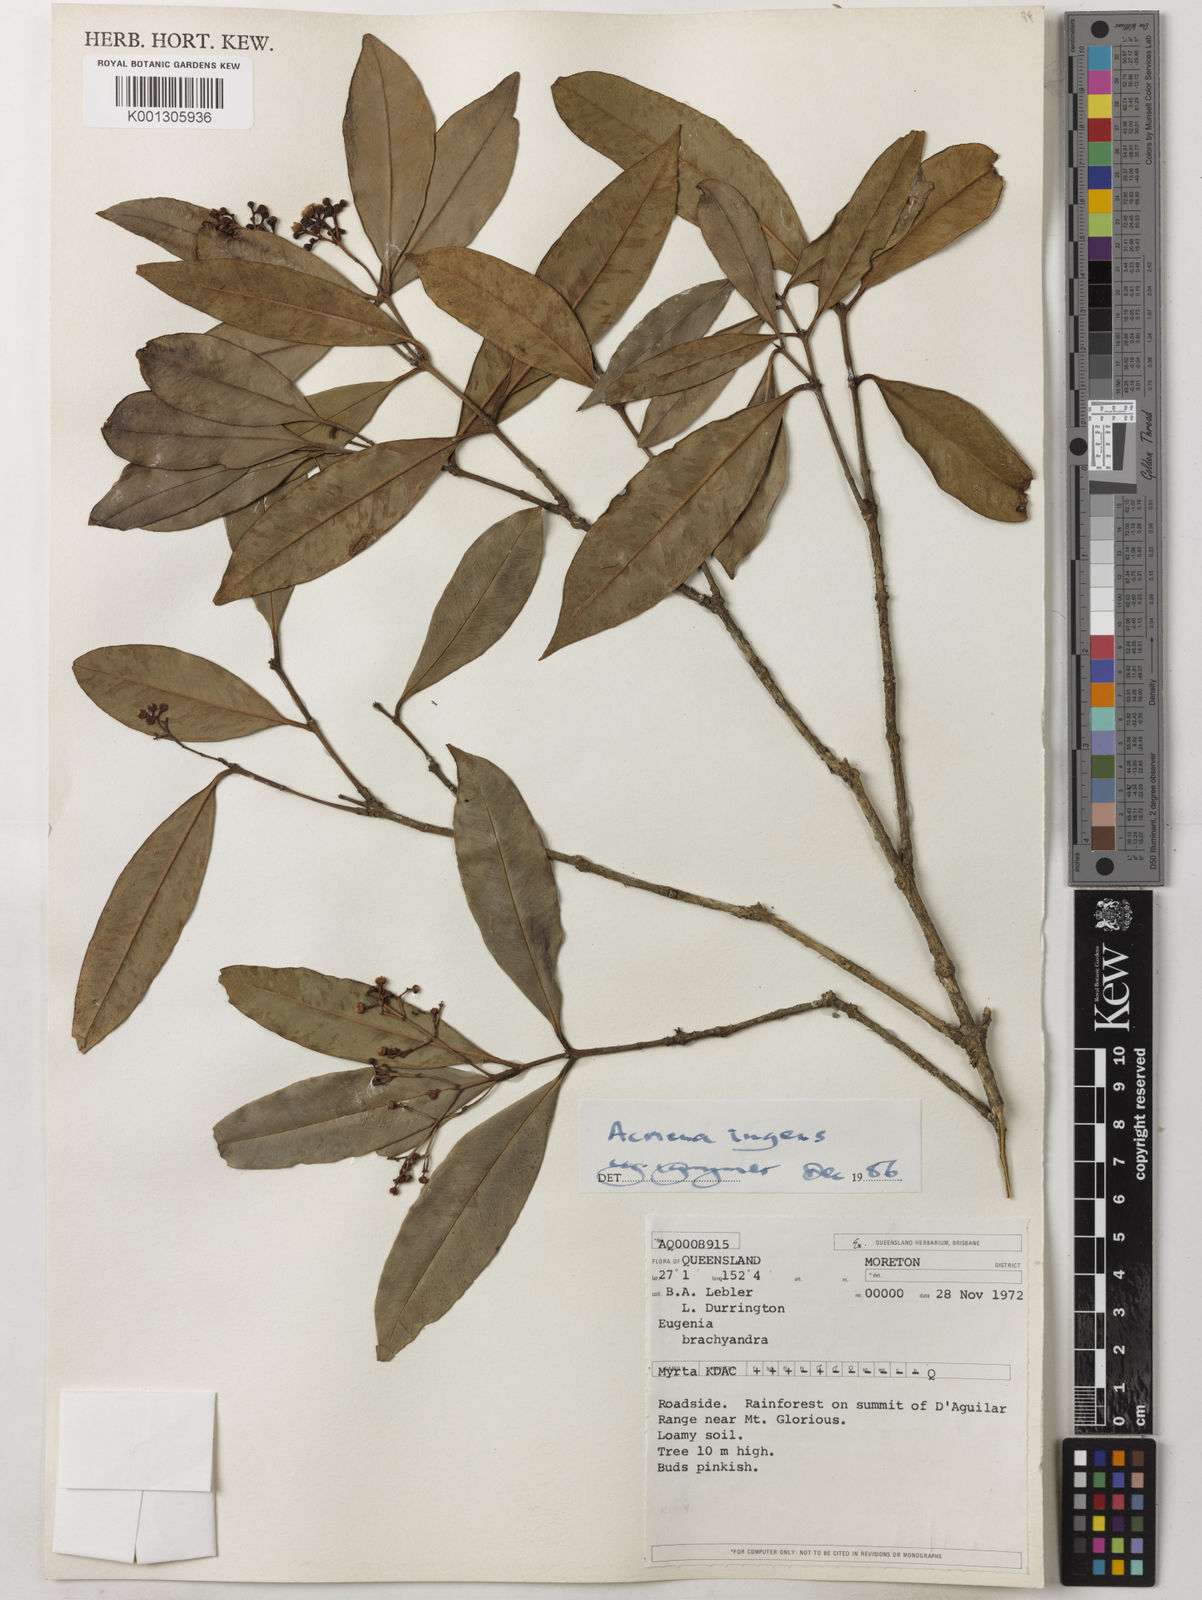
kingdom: Plantae
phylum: Tracheophyta
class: Magnoliopsida
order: Myrtales
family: Myrtaceae
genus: Syzygium
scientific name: Syzygium ingens
